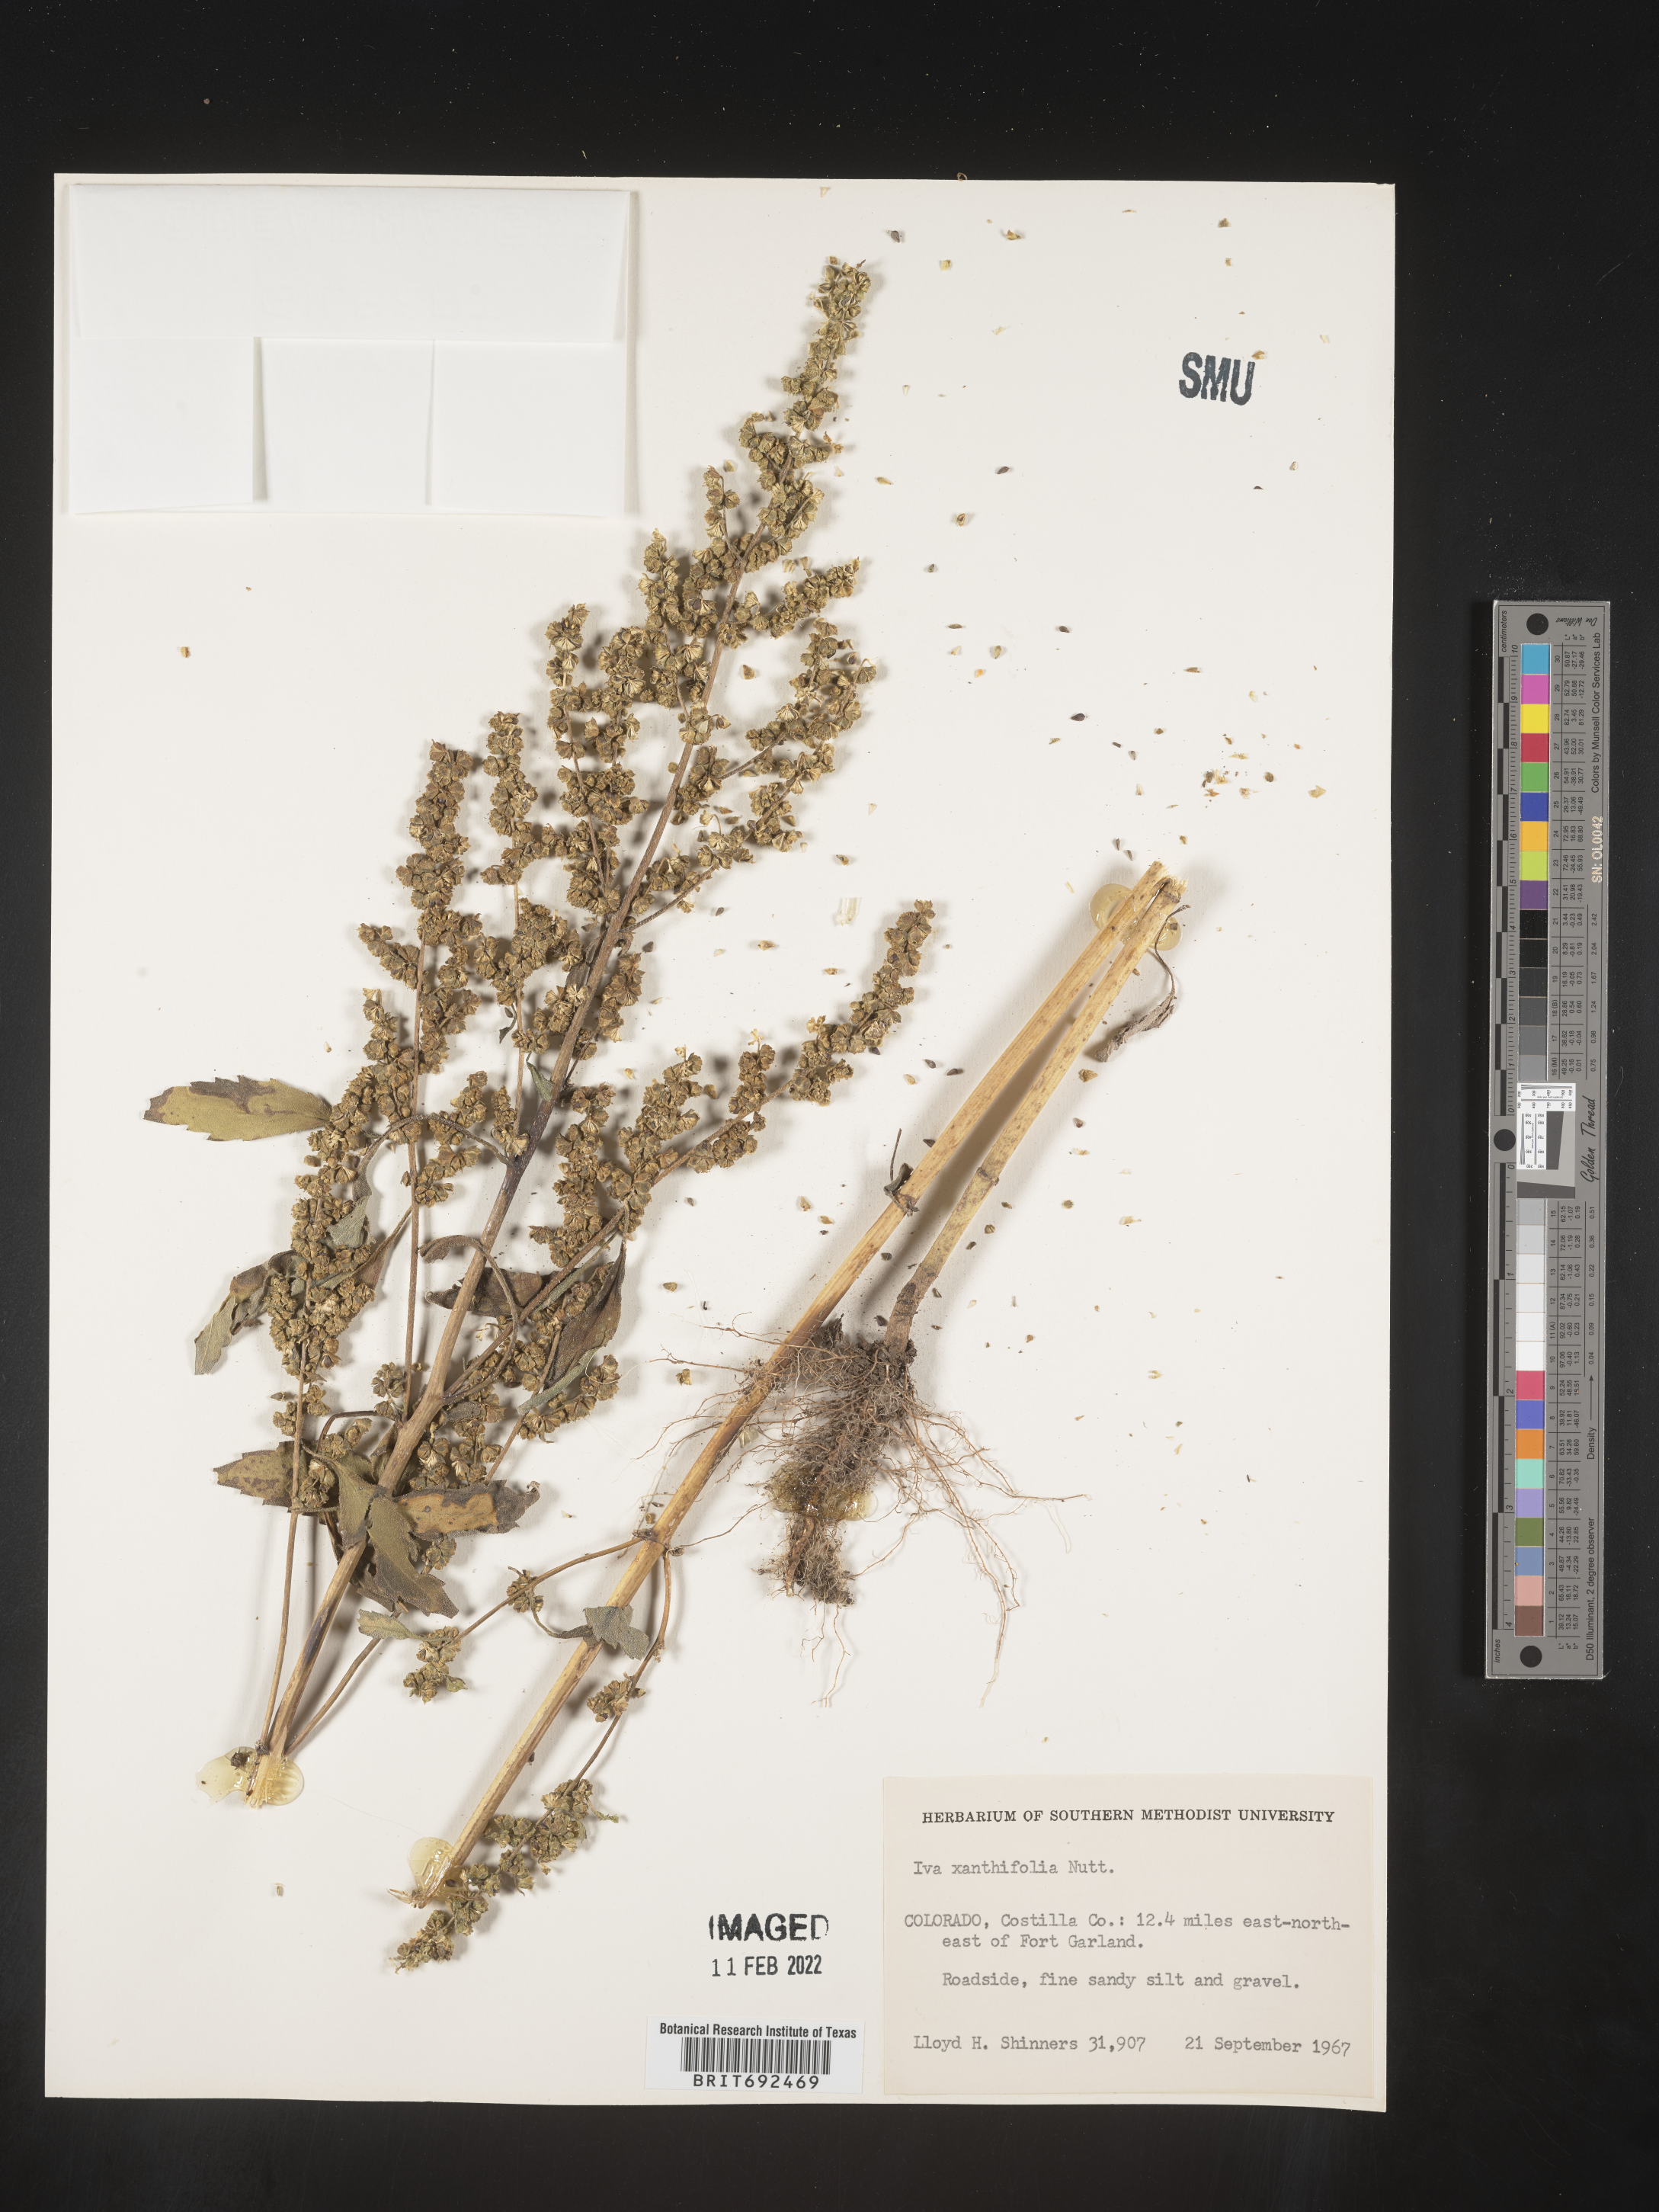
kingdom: Plantae
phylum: Tracheophyta
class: Magnoliopsida
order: Asterales
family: Asteraceae
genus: Cyclachaena
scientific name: Cyclachaena
